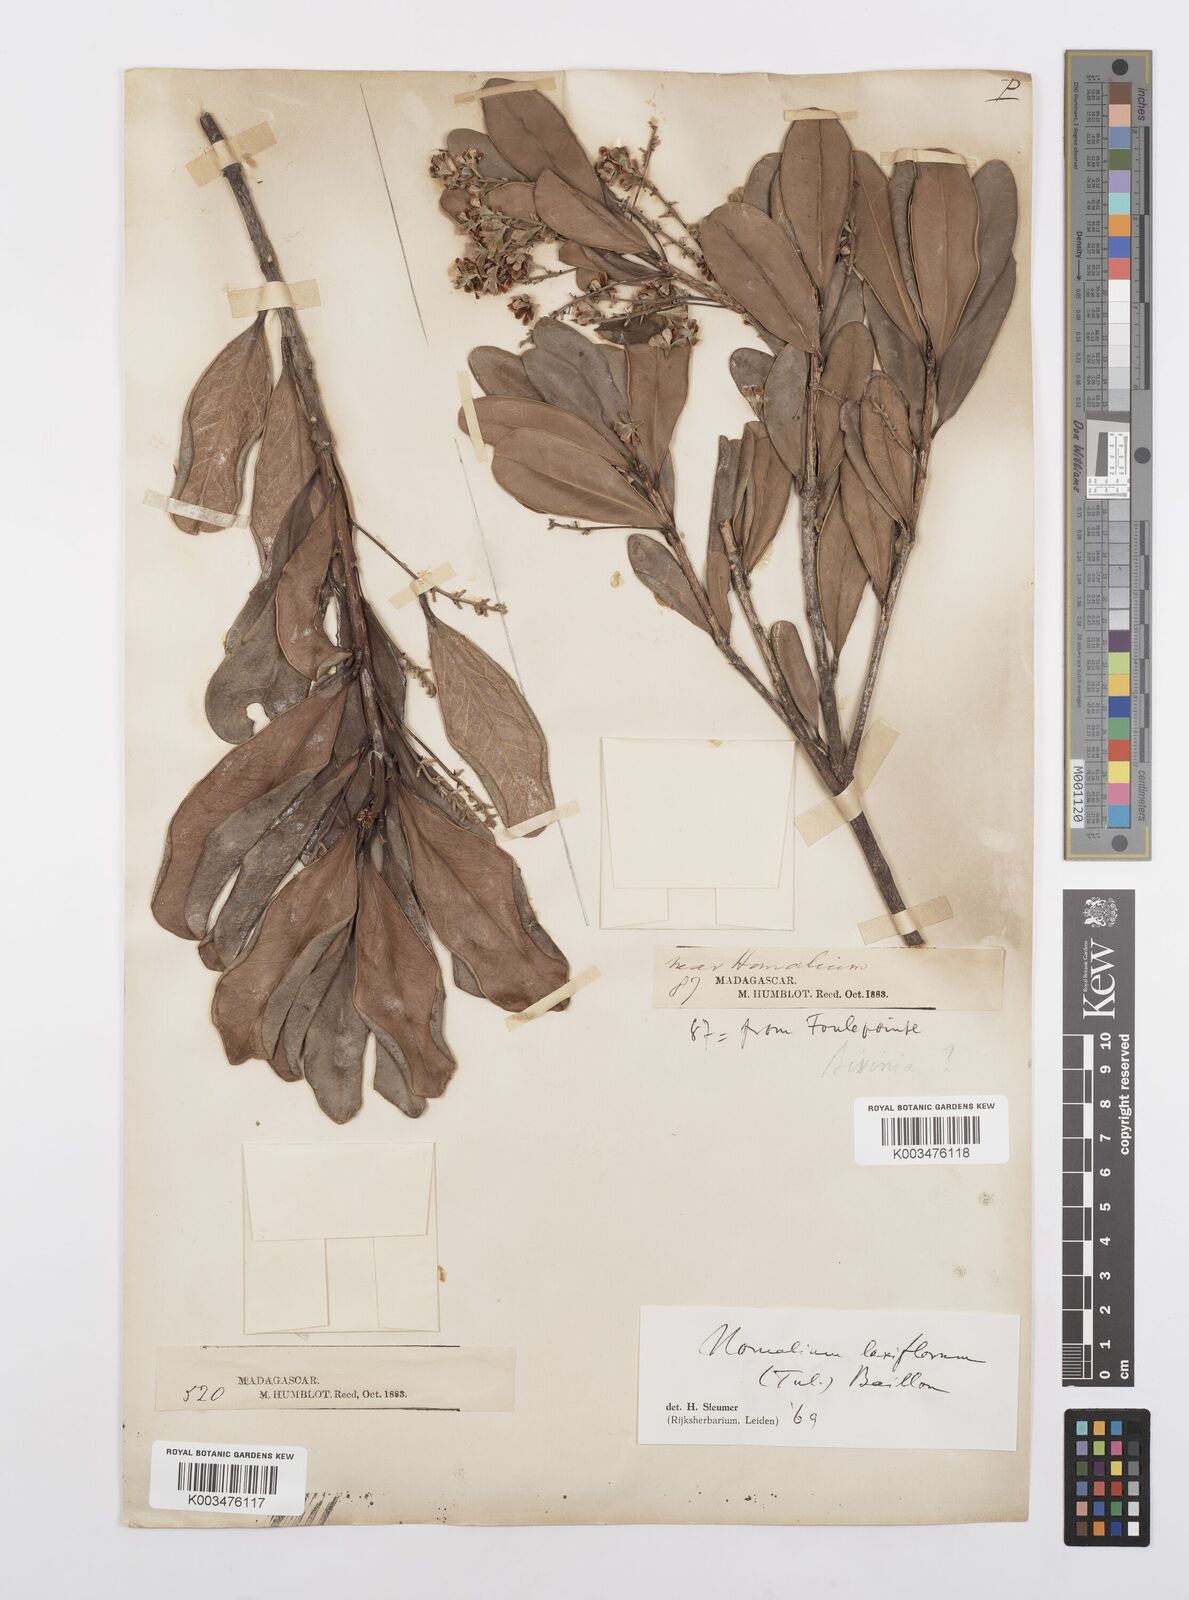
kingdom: Plantae
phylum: Tracheophyta
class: Magnoliopsida
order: Malpighiales
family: Salicaceae
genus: Homalium
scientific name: Homalium laxiflorum
